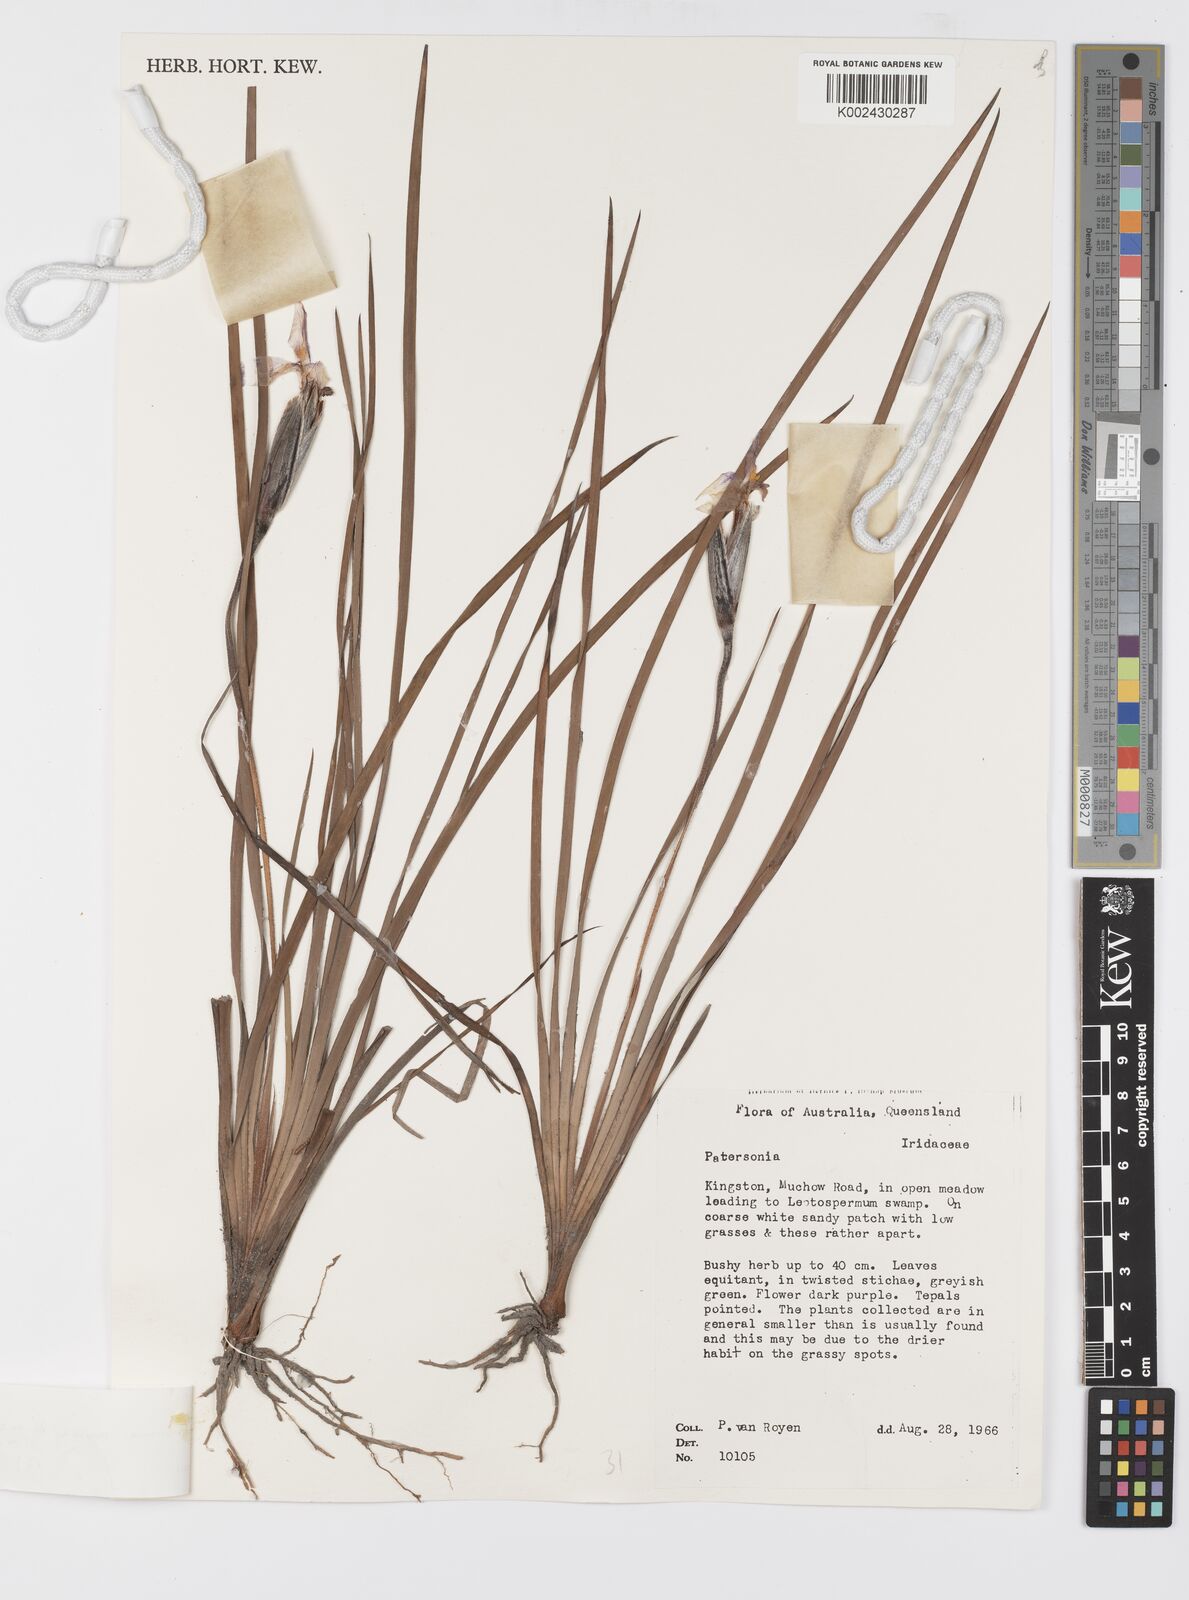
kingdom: Plantae
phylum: Tracheophyta
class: Liliopsida
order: Asparagales
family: Iridaceae
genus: Patersonia
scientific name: Patersonia
